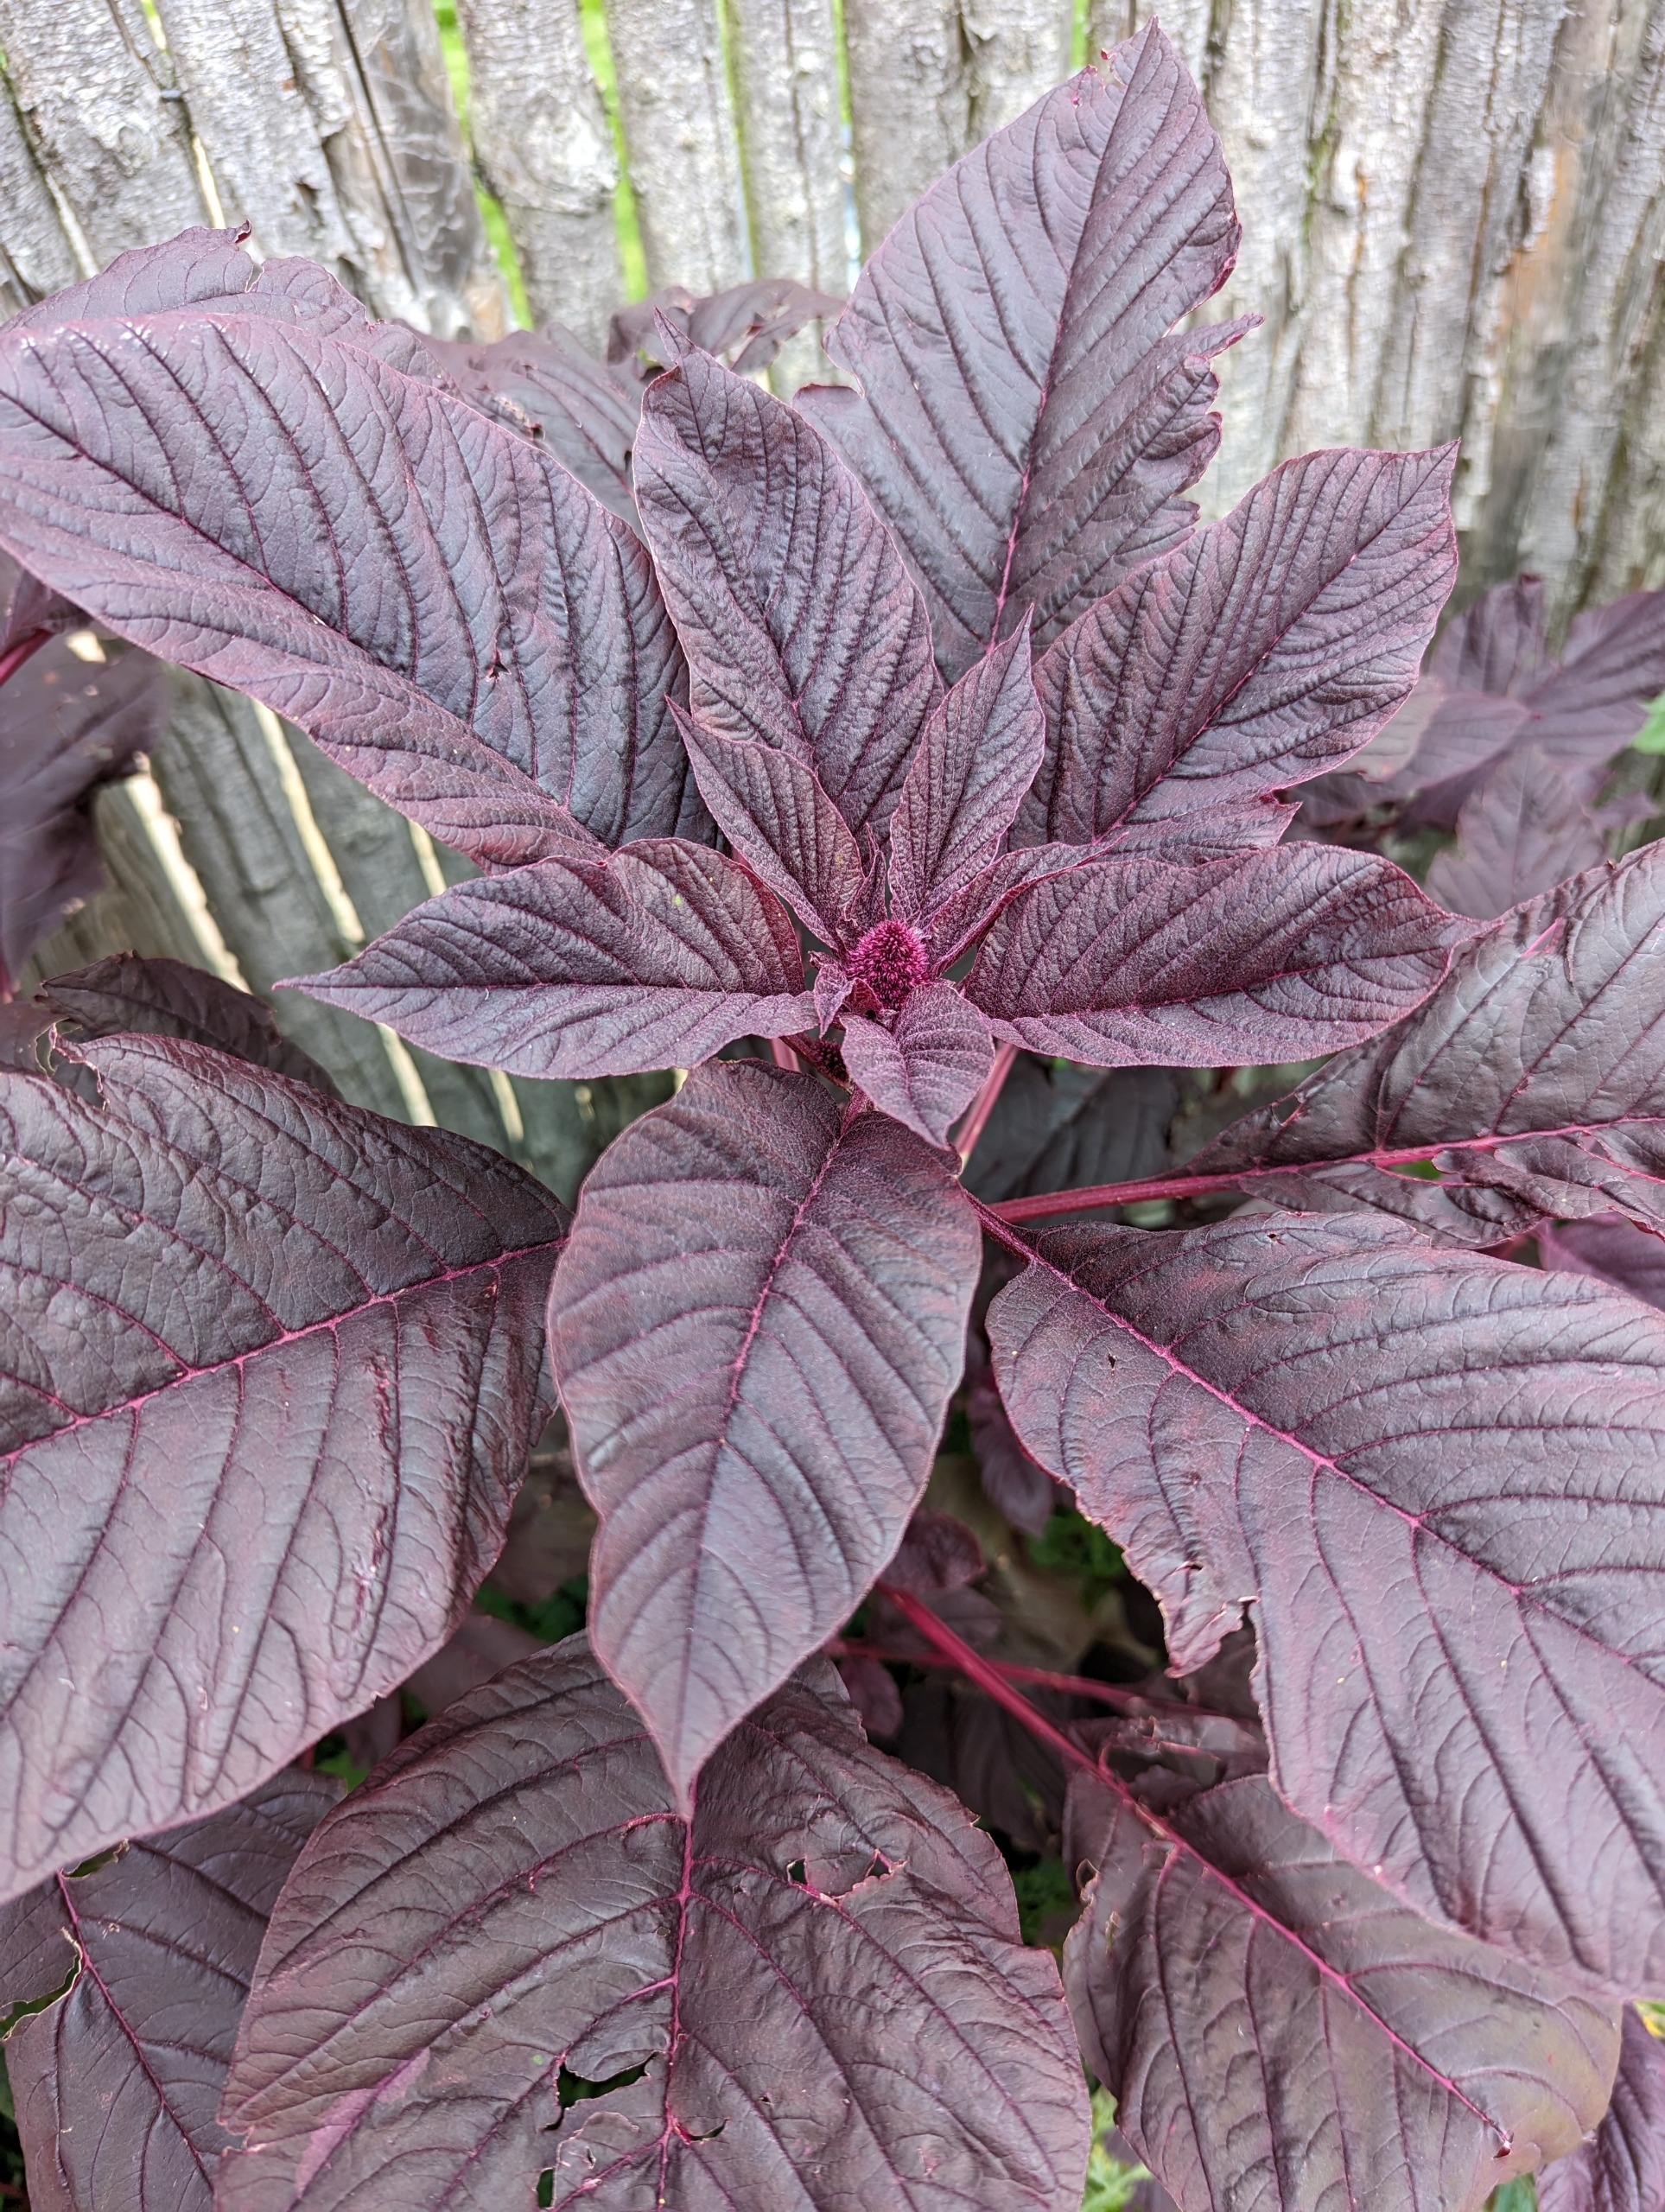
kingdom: Plantae
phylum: Tracheophyta
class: Magnoliopsida
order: Caryophyllales
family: Amaranthaceae
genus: Amaranthus
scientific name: Amaranthus cruentus
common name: Blod-amarant
